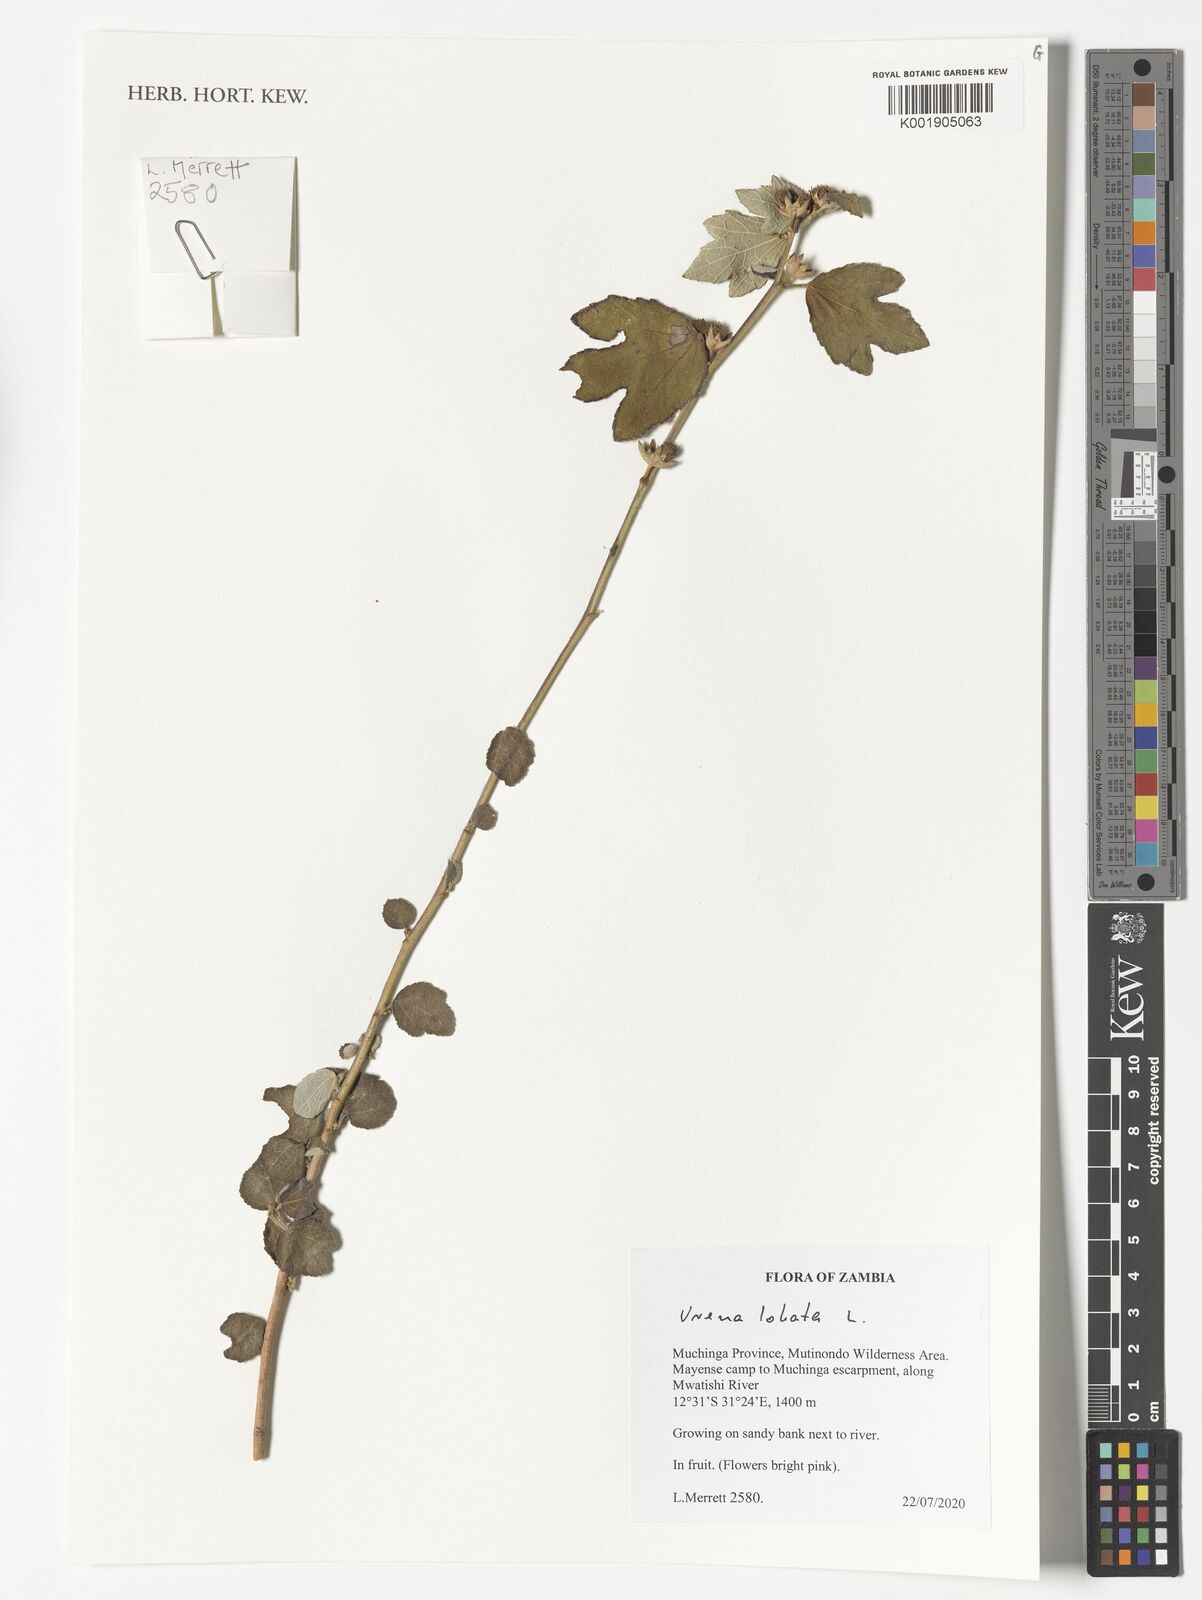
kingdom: Plantae
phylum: Tracheophyta
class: Magnoliopsida
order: Malvales
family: Malvaceae
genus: Urena
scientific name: Urena lobata
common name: Caesarweed
